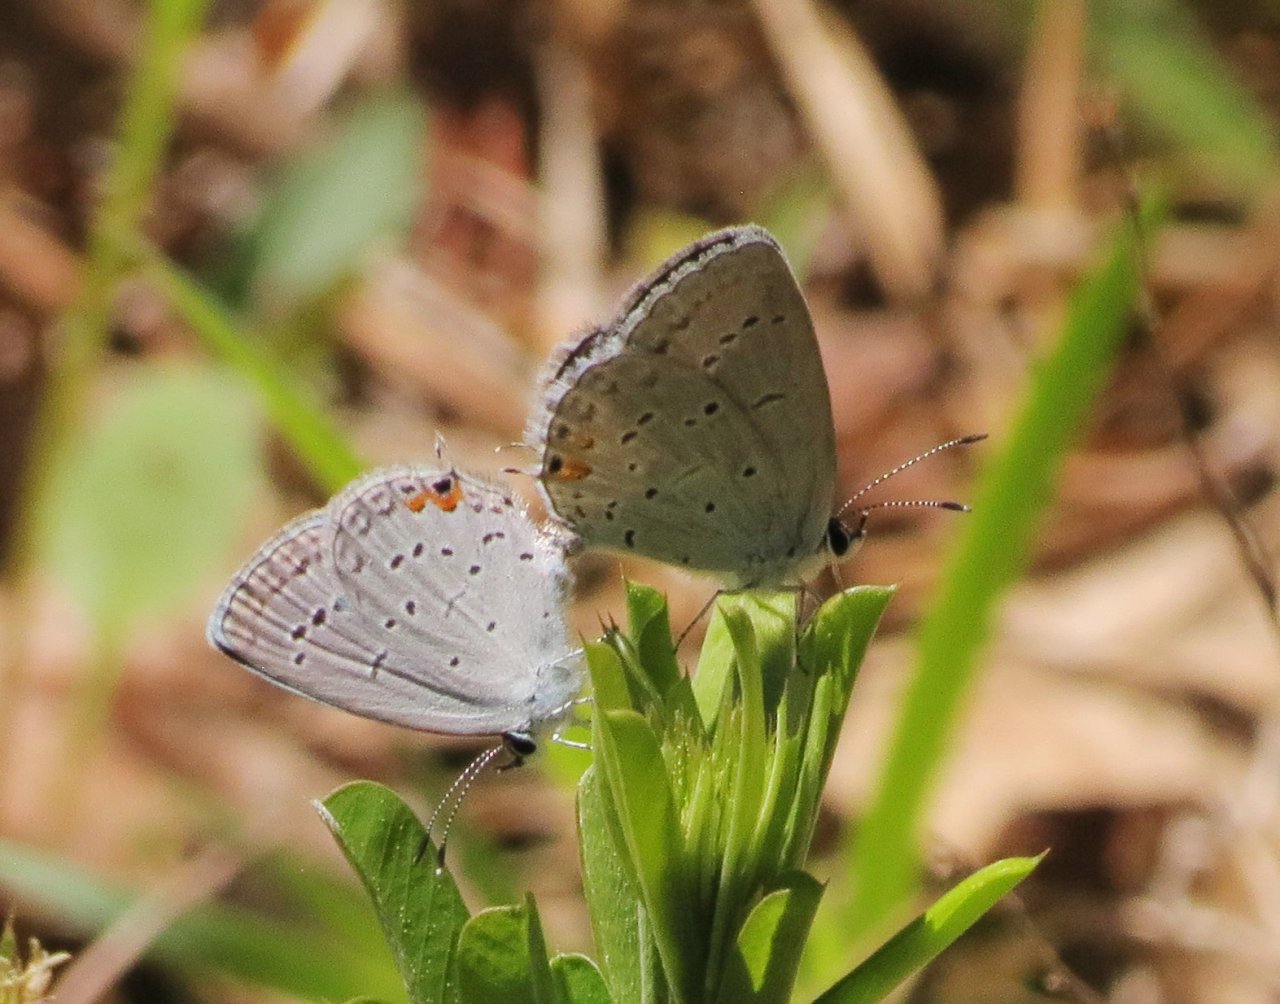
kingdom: Animalia
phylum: Arthropoda
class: Insecta
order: Lepidoptera
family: Lycaenidae
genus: Elkalyce
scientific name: Elkalyce comyntas
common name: Eastern Tailed-Blue
